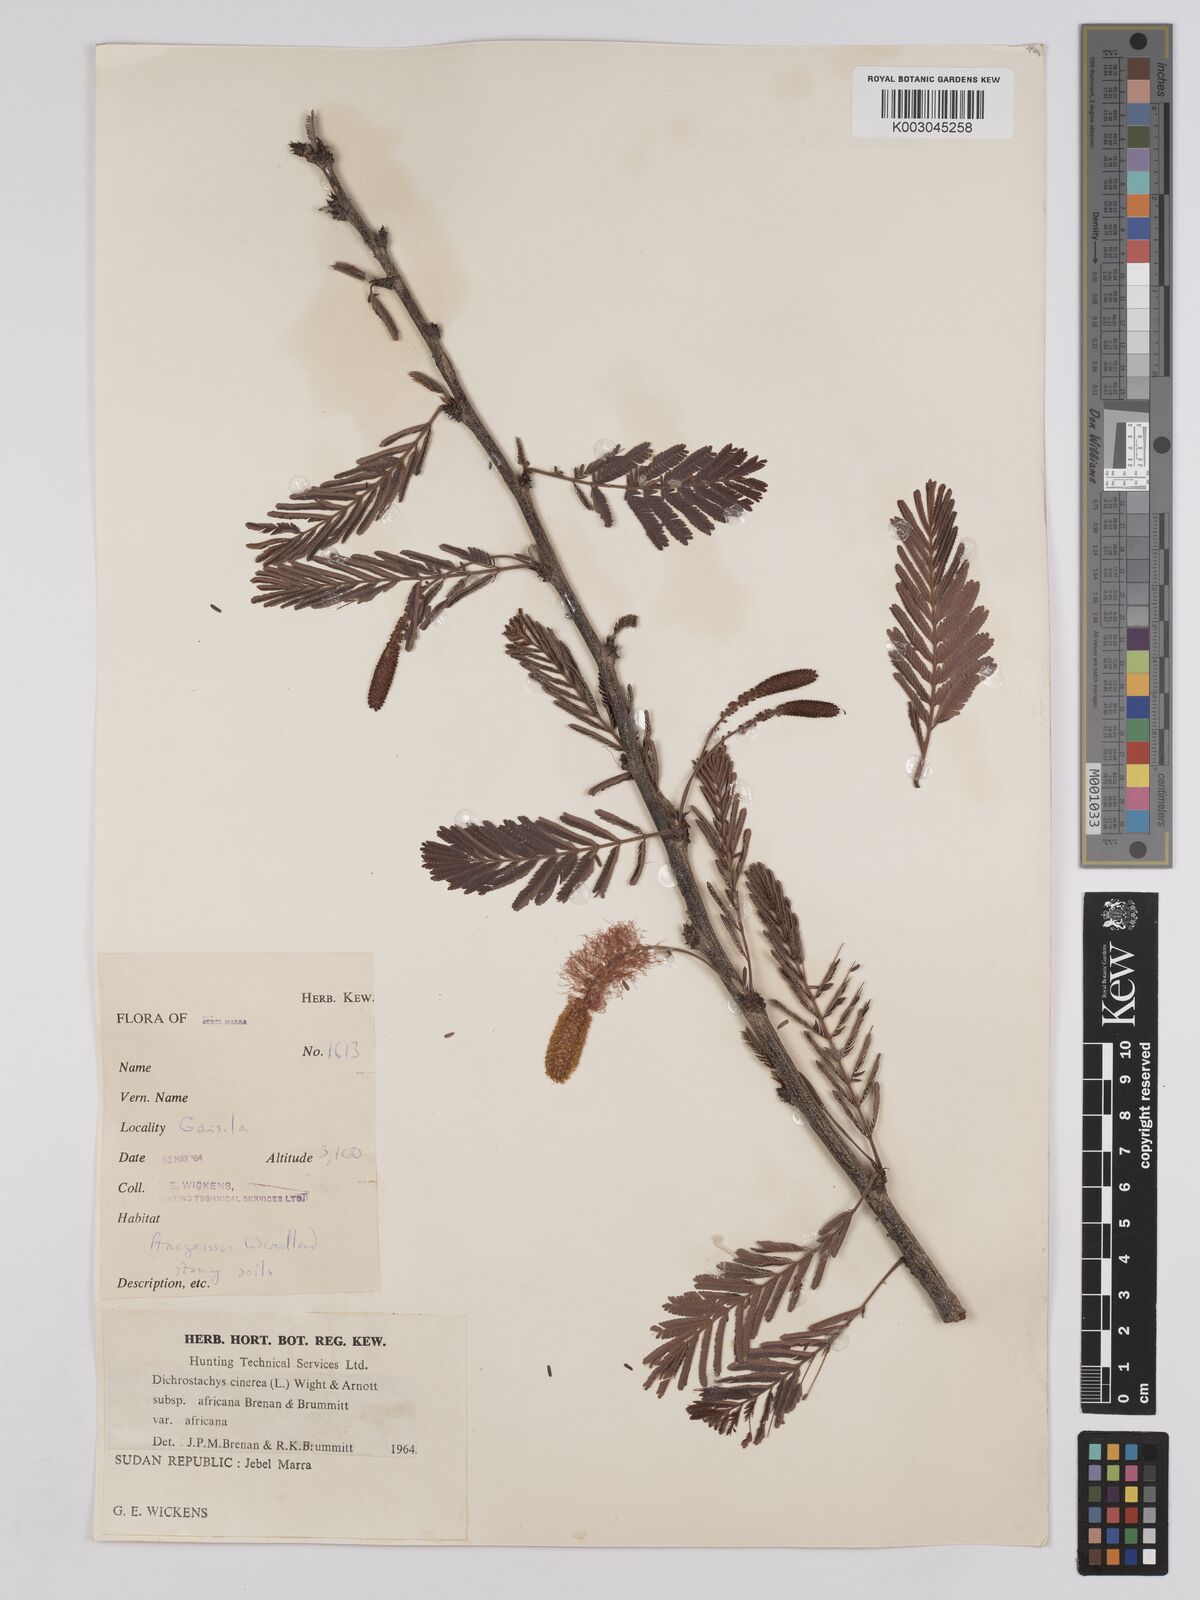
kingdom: Plantae
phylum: Tracheophyta
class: Magnoliopsida
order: Fabales
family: Fabaceae
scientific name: Fabaceae
